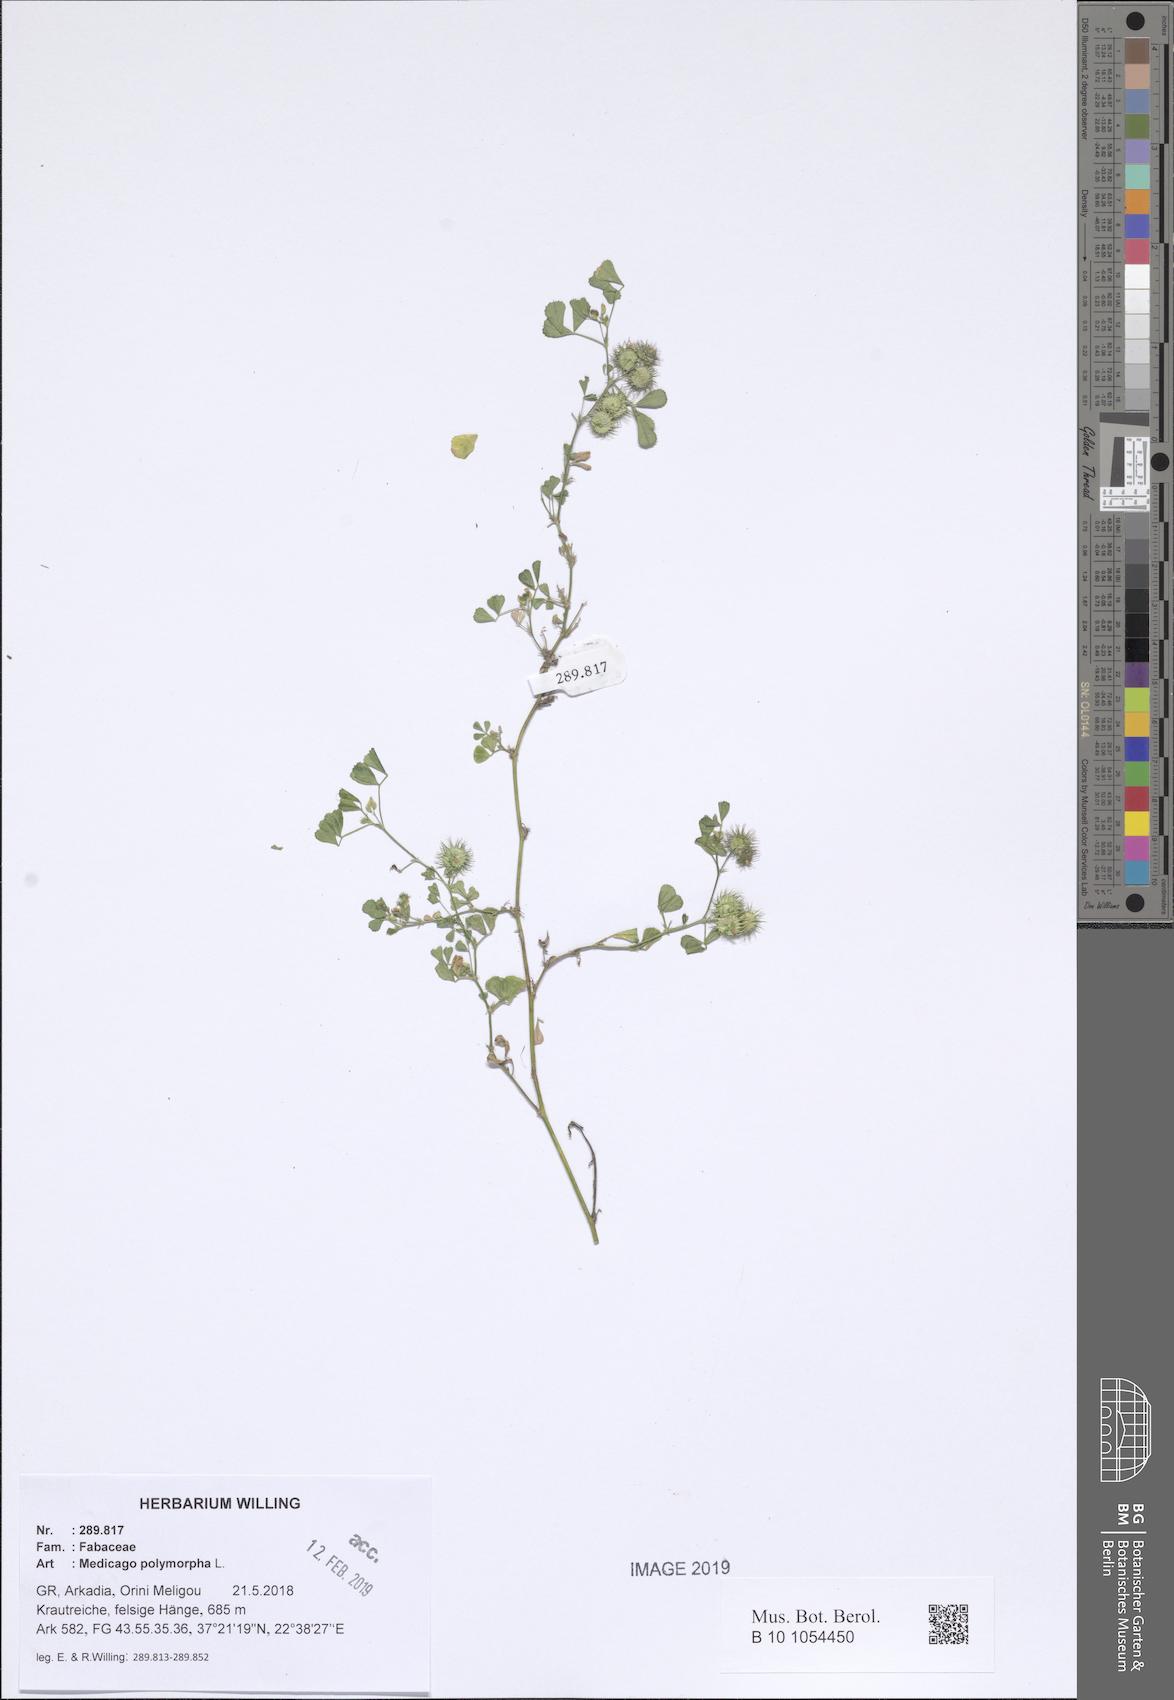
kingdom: Plantae
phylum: Tracheophyta
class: Magnoliopsida
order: Fabales
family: Fabaceae
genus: Medicago
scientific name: Medicago polymorpha
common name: Burclover
